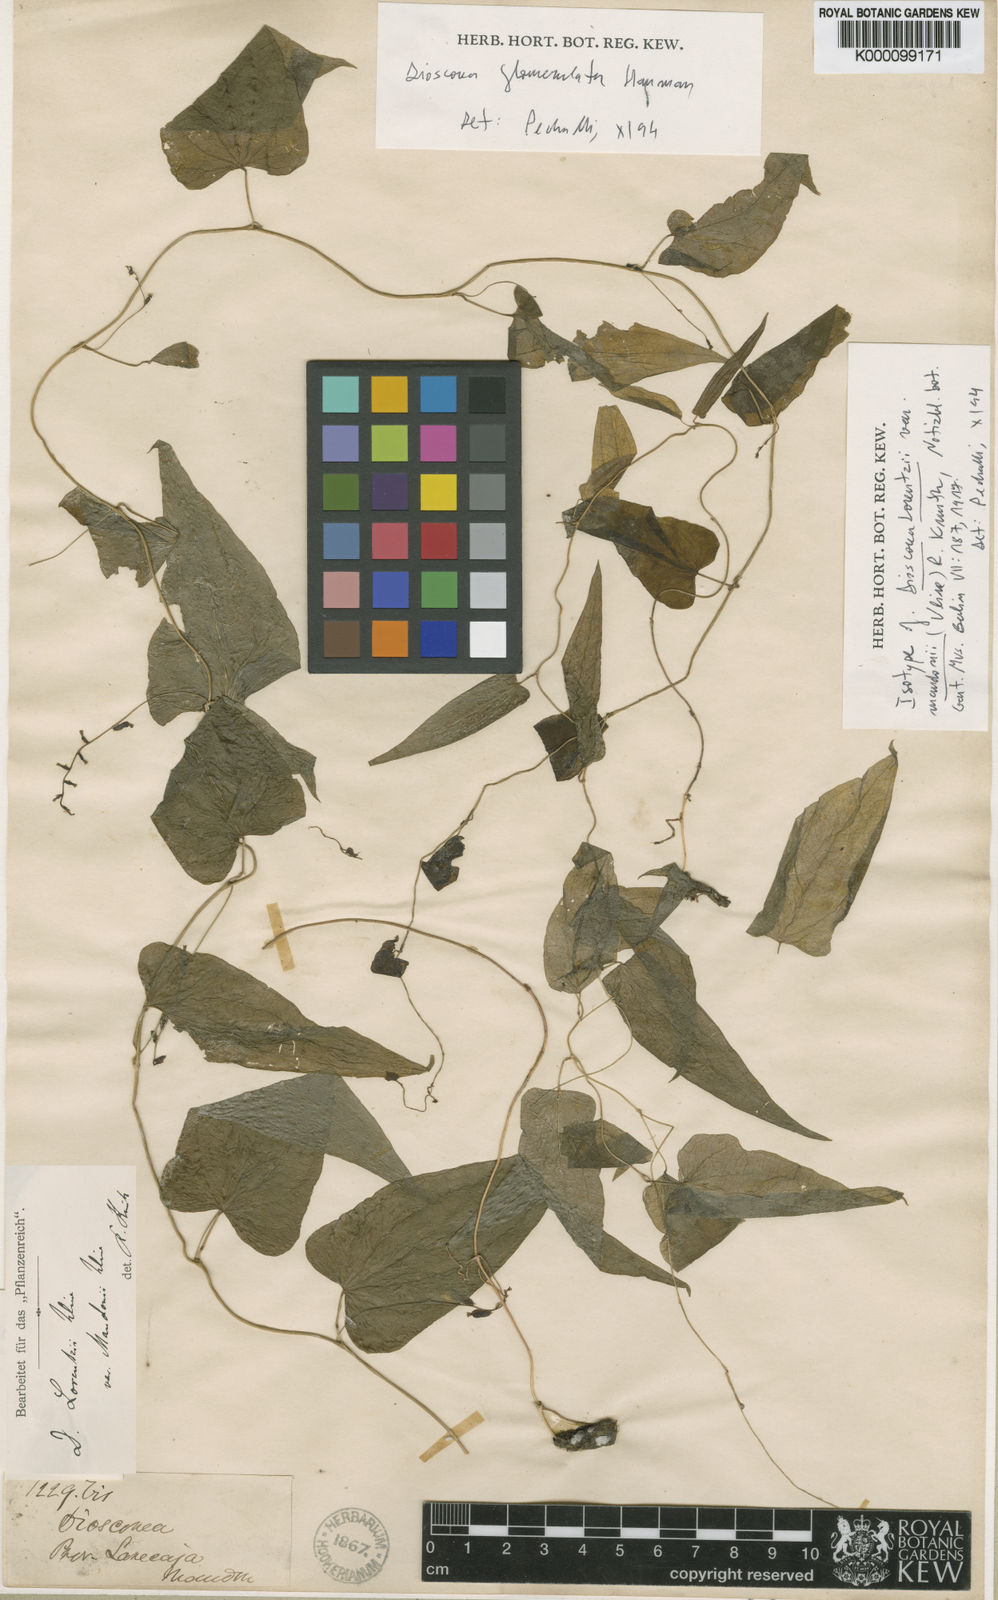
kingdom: Plantae
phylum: Tracheophyta
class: Liliopsida
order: Dioscoreales
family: Dioscoreaceae
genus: Dioscorea
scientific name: Dioscorea glomerulata
